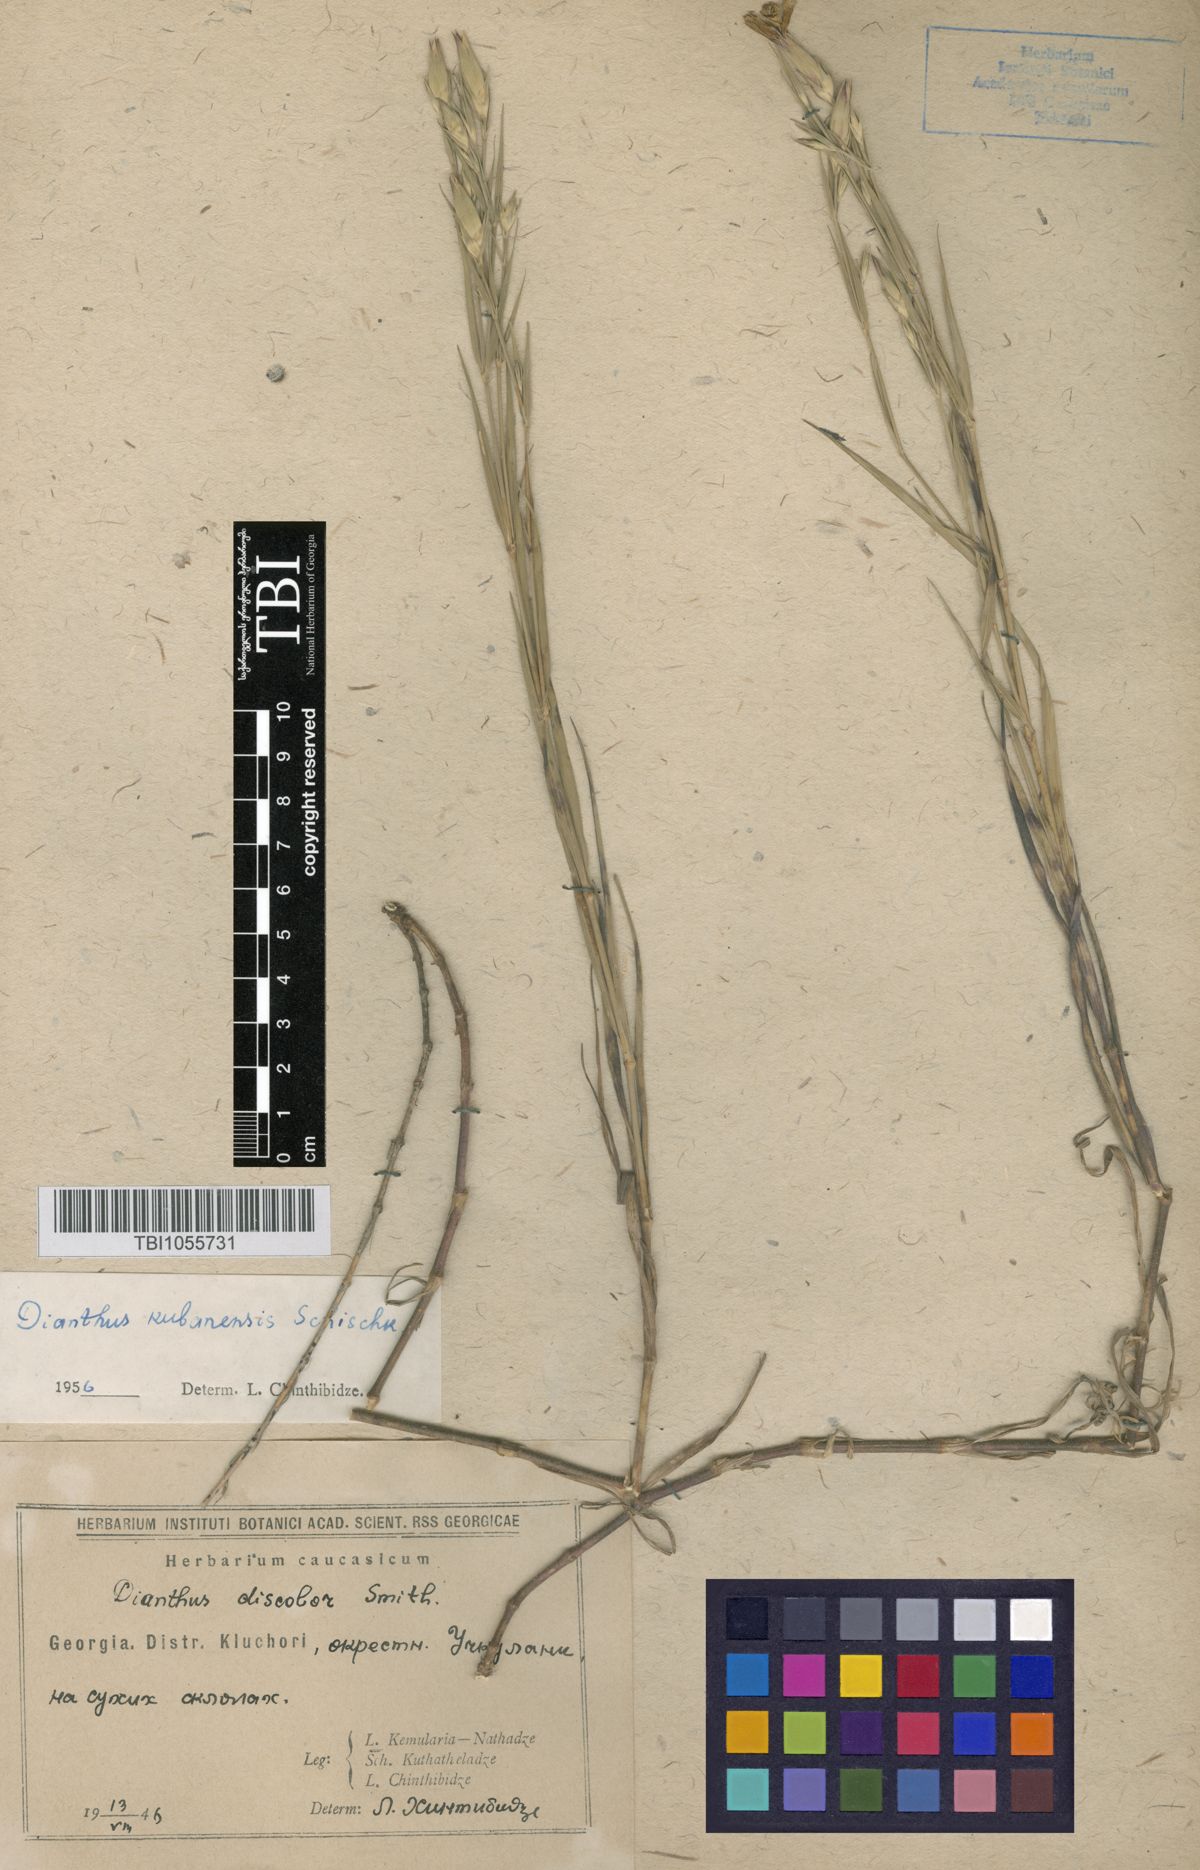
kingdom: Plantae
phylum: Tracheophyta
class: Magnoliopsida
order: Caryophyllales
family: Caryophyllaceae
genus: Dianthus
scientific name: Dianthus
